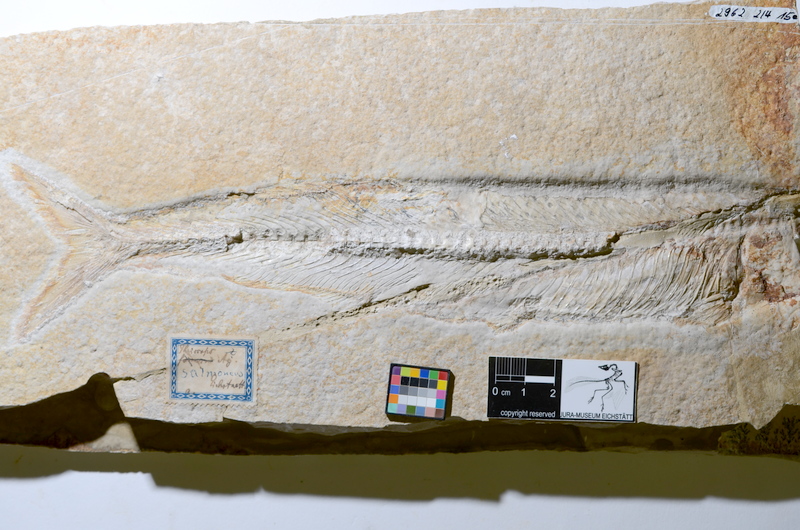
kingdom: Animalia
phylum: Chordata
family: Allothrissopidae
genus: Allothrissops
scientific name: Allothrissops
